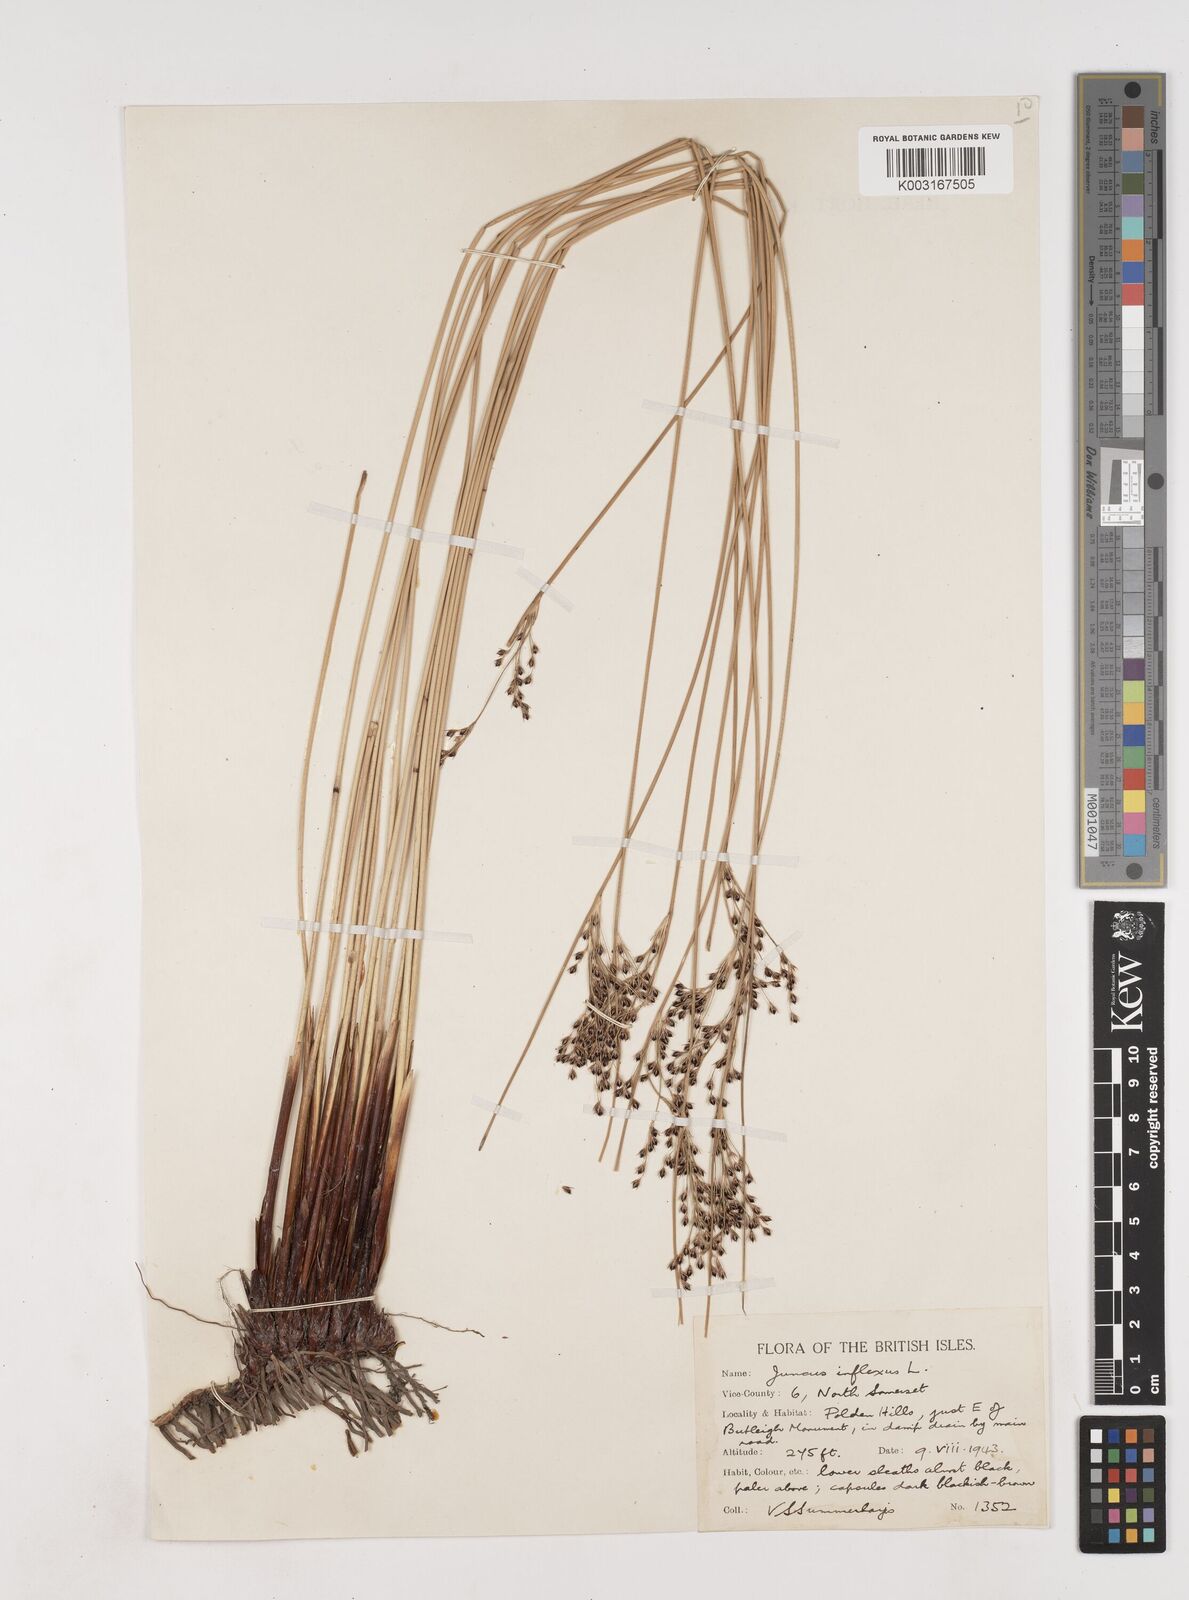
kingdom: Plantae
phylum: Tracheophyta
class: Liliopsida
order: Poales
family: Juncaceae
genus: Juncus
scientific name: Juncus inflexus
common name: Hard rush
